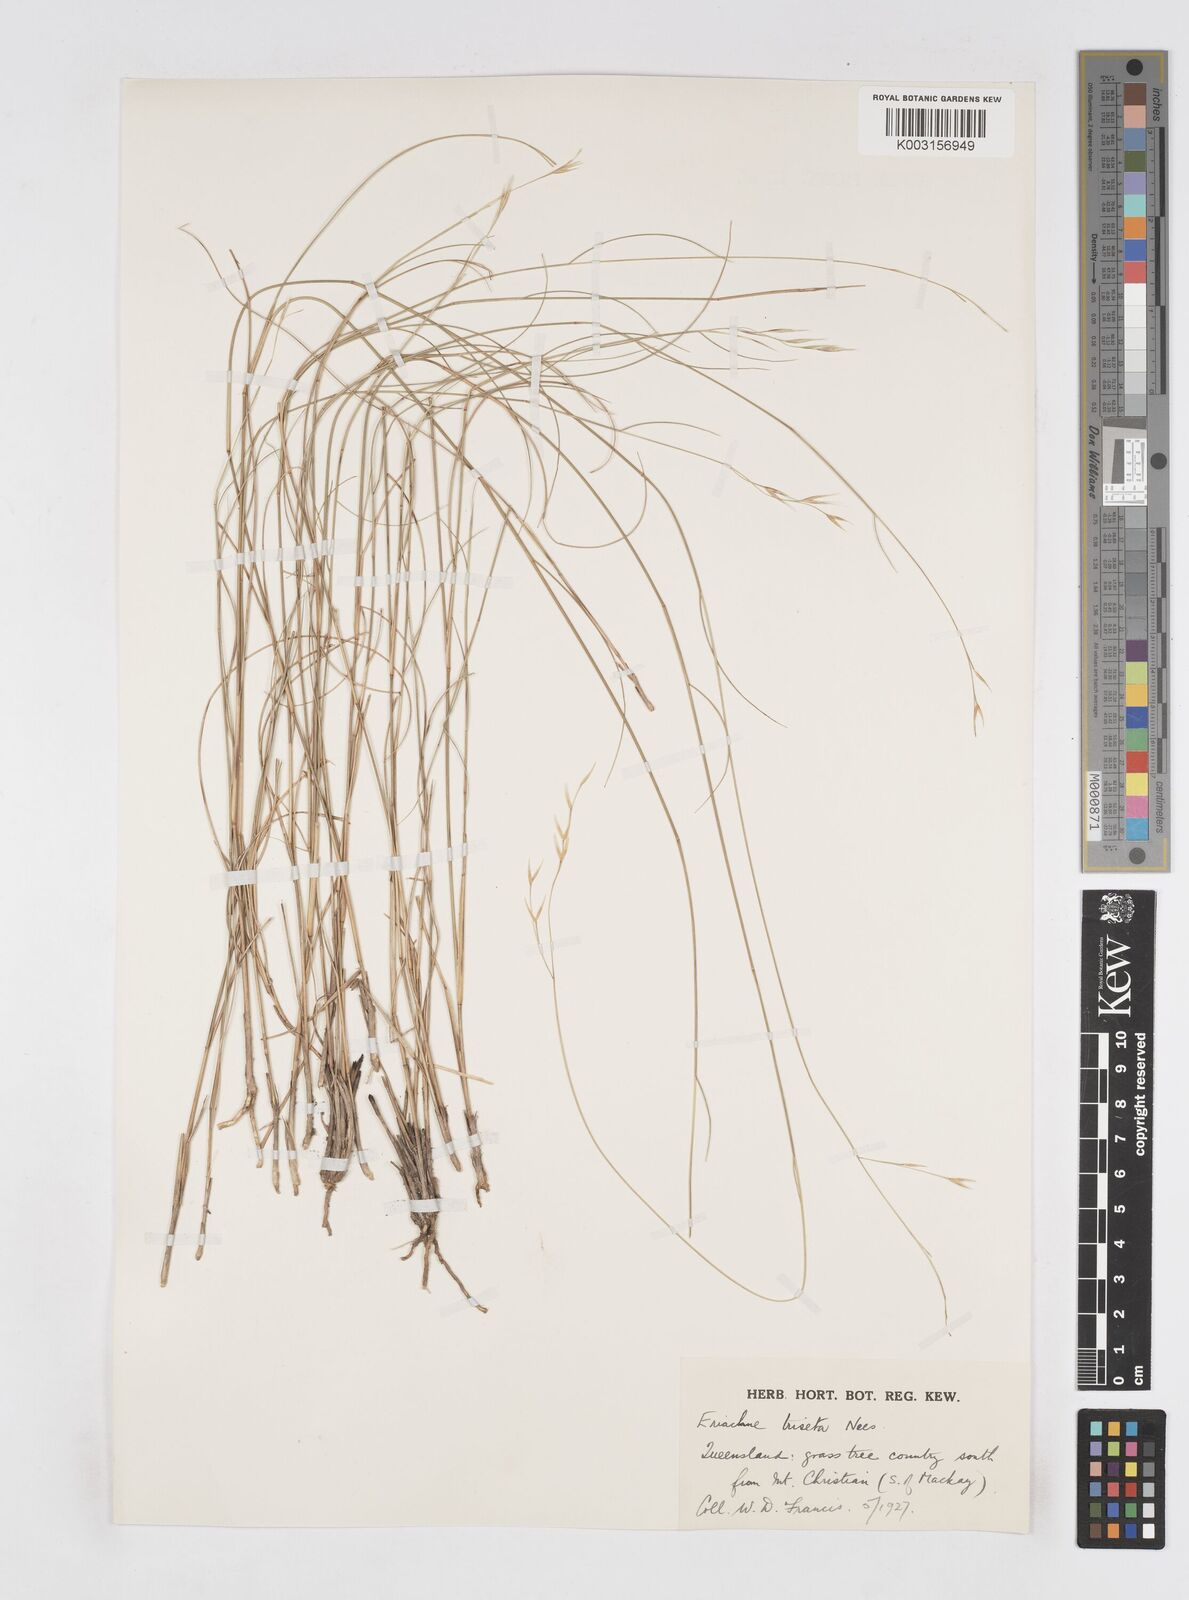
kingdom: Plantae
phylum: Tracheophyta
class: Liliopsida
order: Poales
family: Poaceae
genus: Eriachne
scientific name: Eriachne triseta
